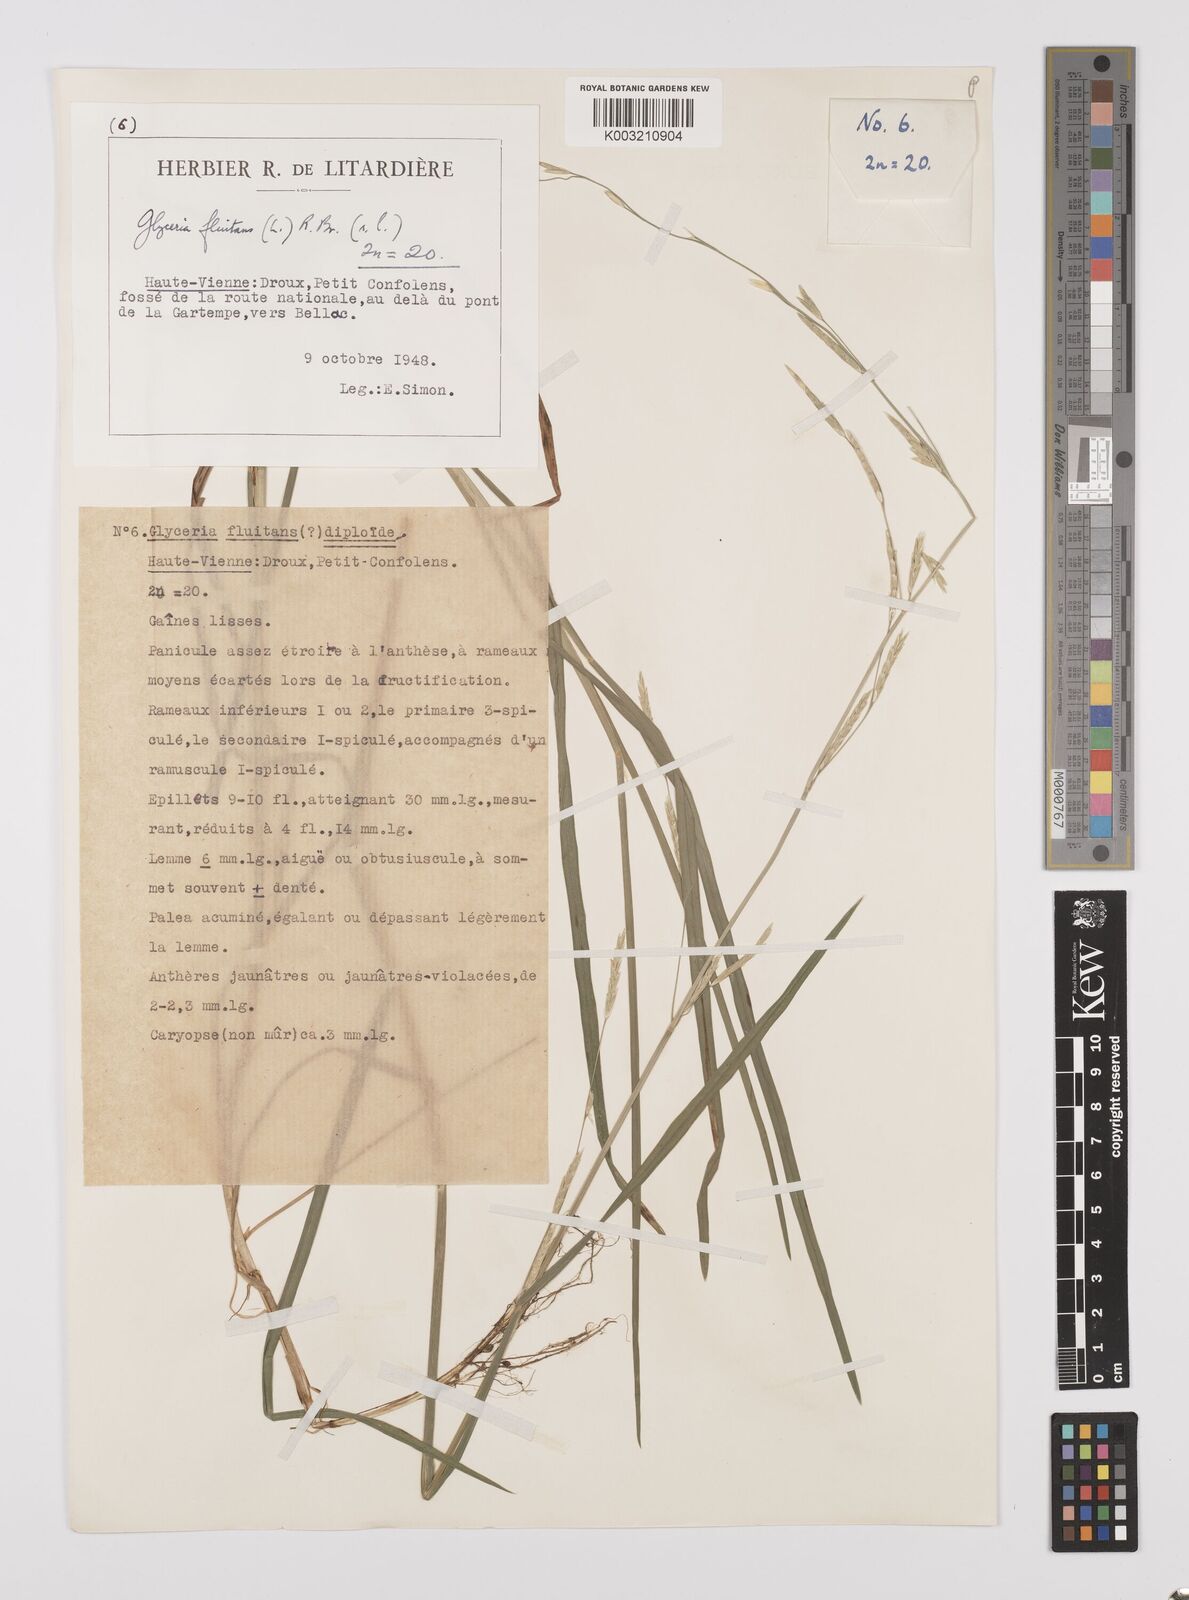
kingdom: Plantae
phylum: Tracheophyta
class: Liliopsida
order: Poales
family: Poaceae
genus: Glyceria
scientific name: Glyceria fluitans
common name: Floating sweet-grass
